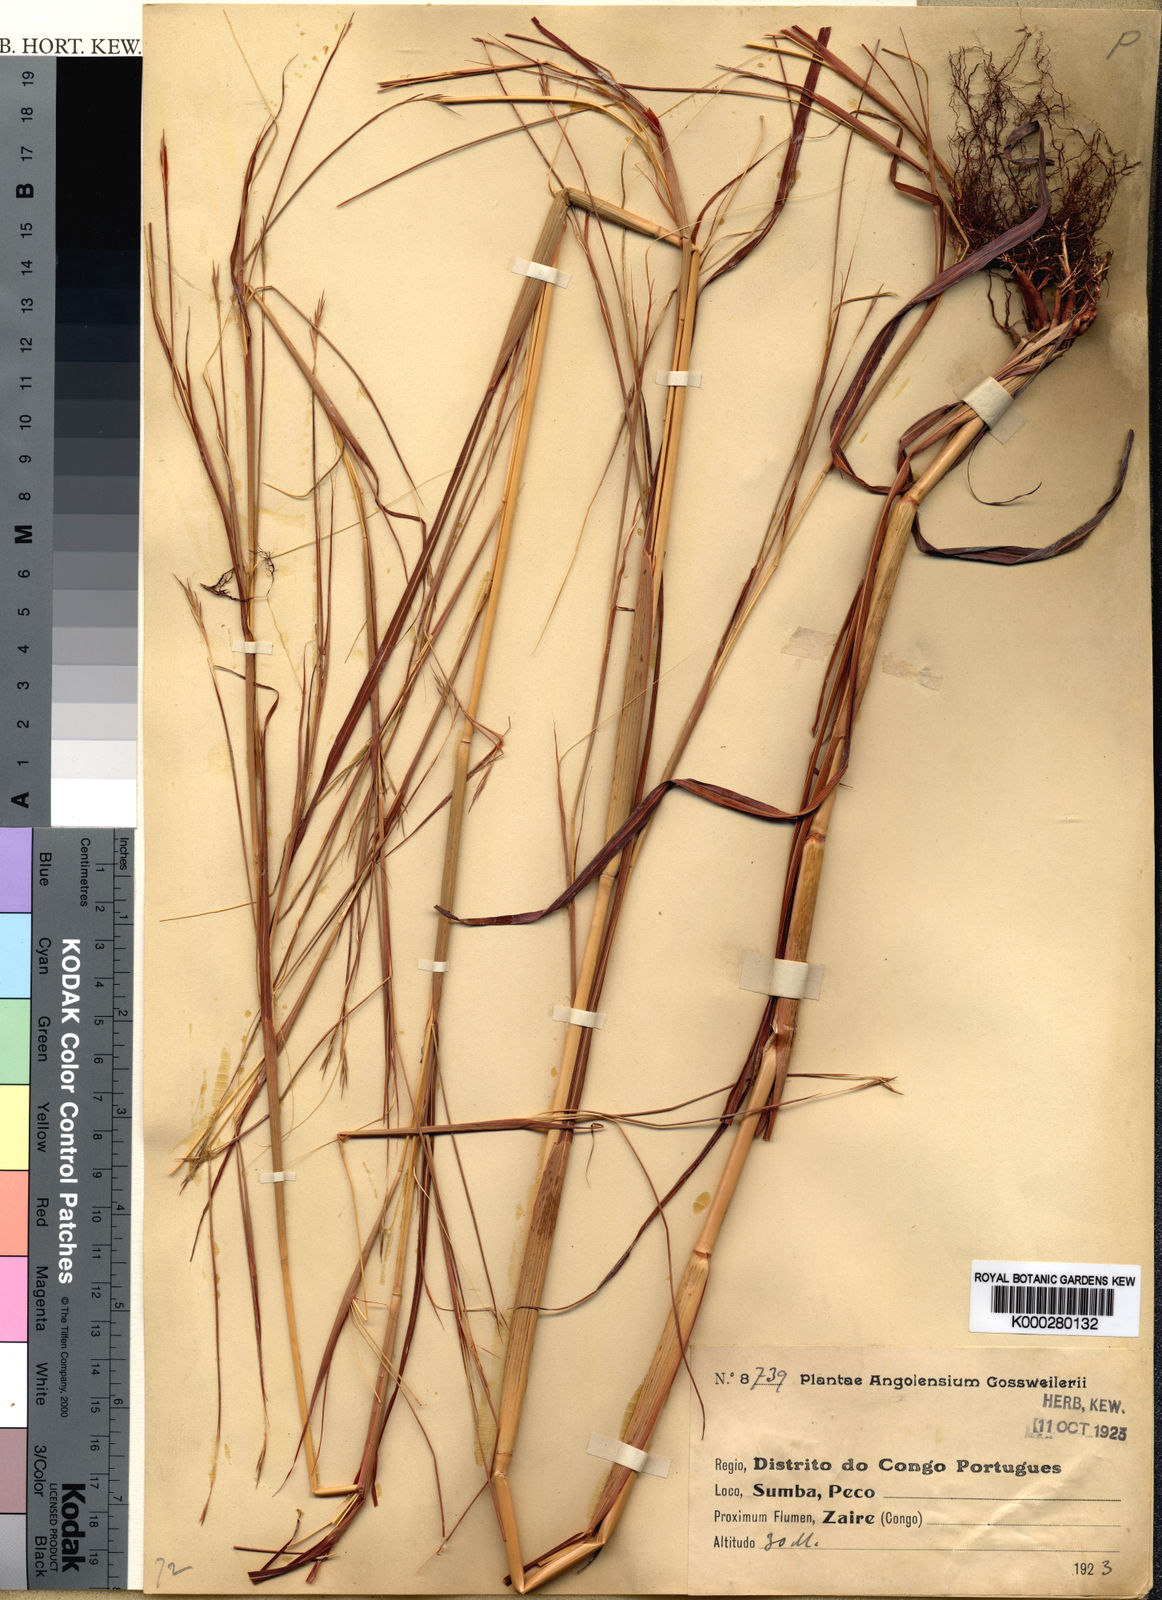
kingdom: Plantae
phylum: Tracheophyta
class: Liliopsida
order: Poales
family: Poaceae
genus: Elymandra
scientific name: Elymandra gossweileri
